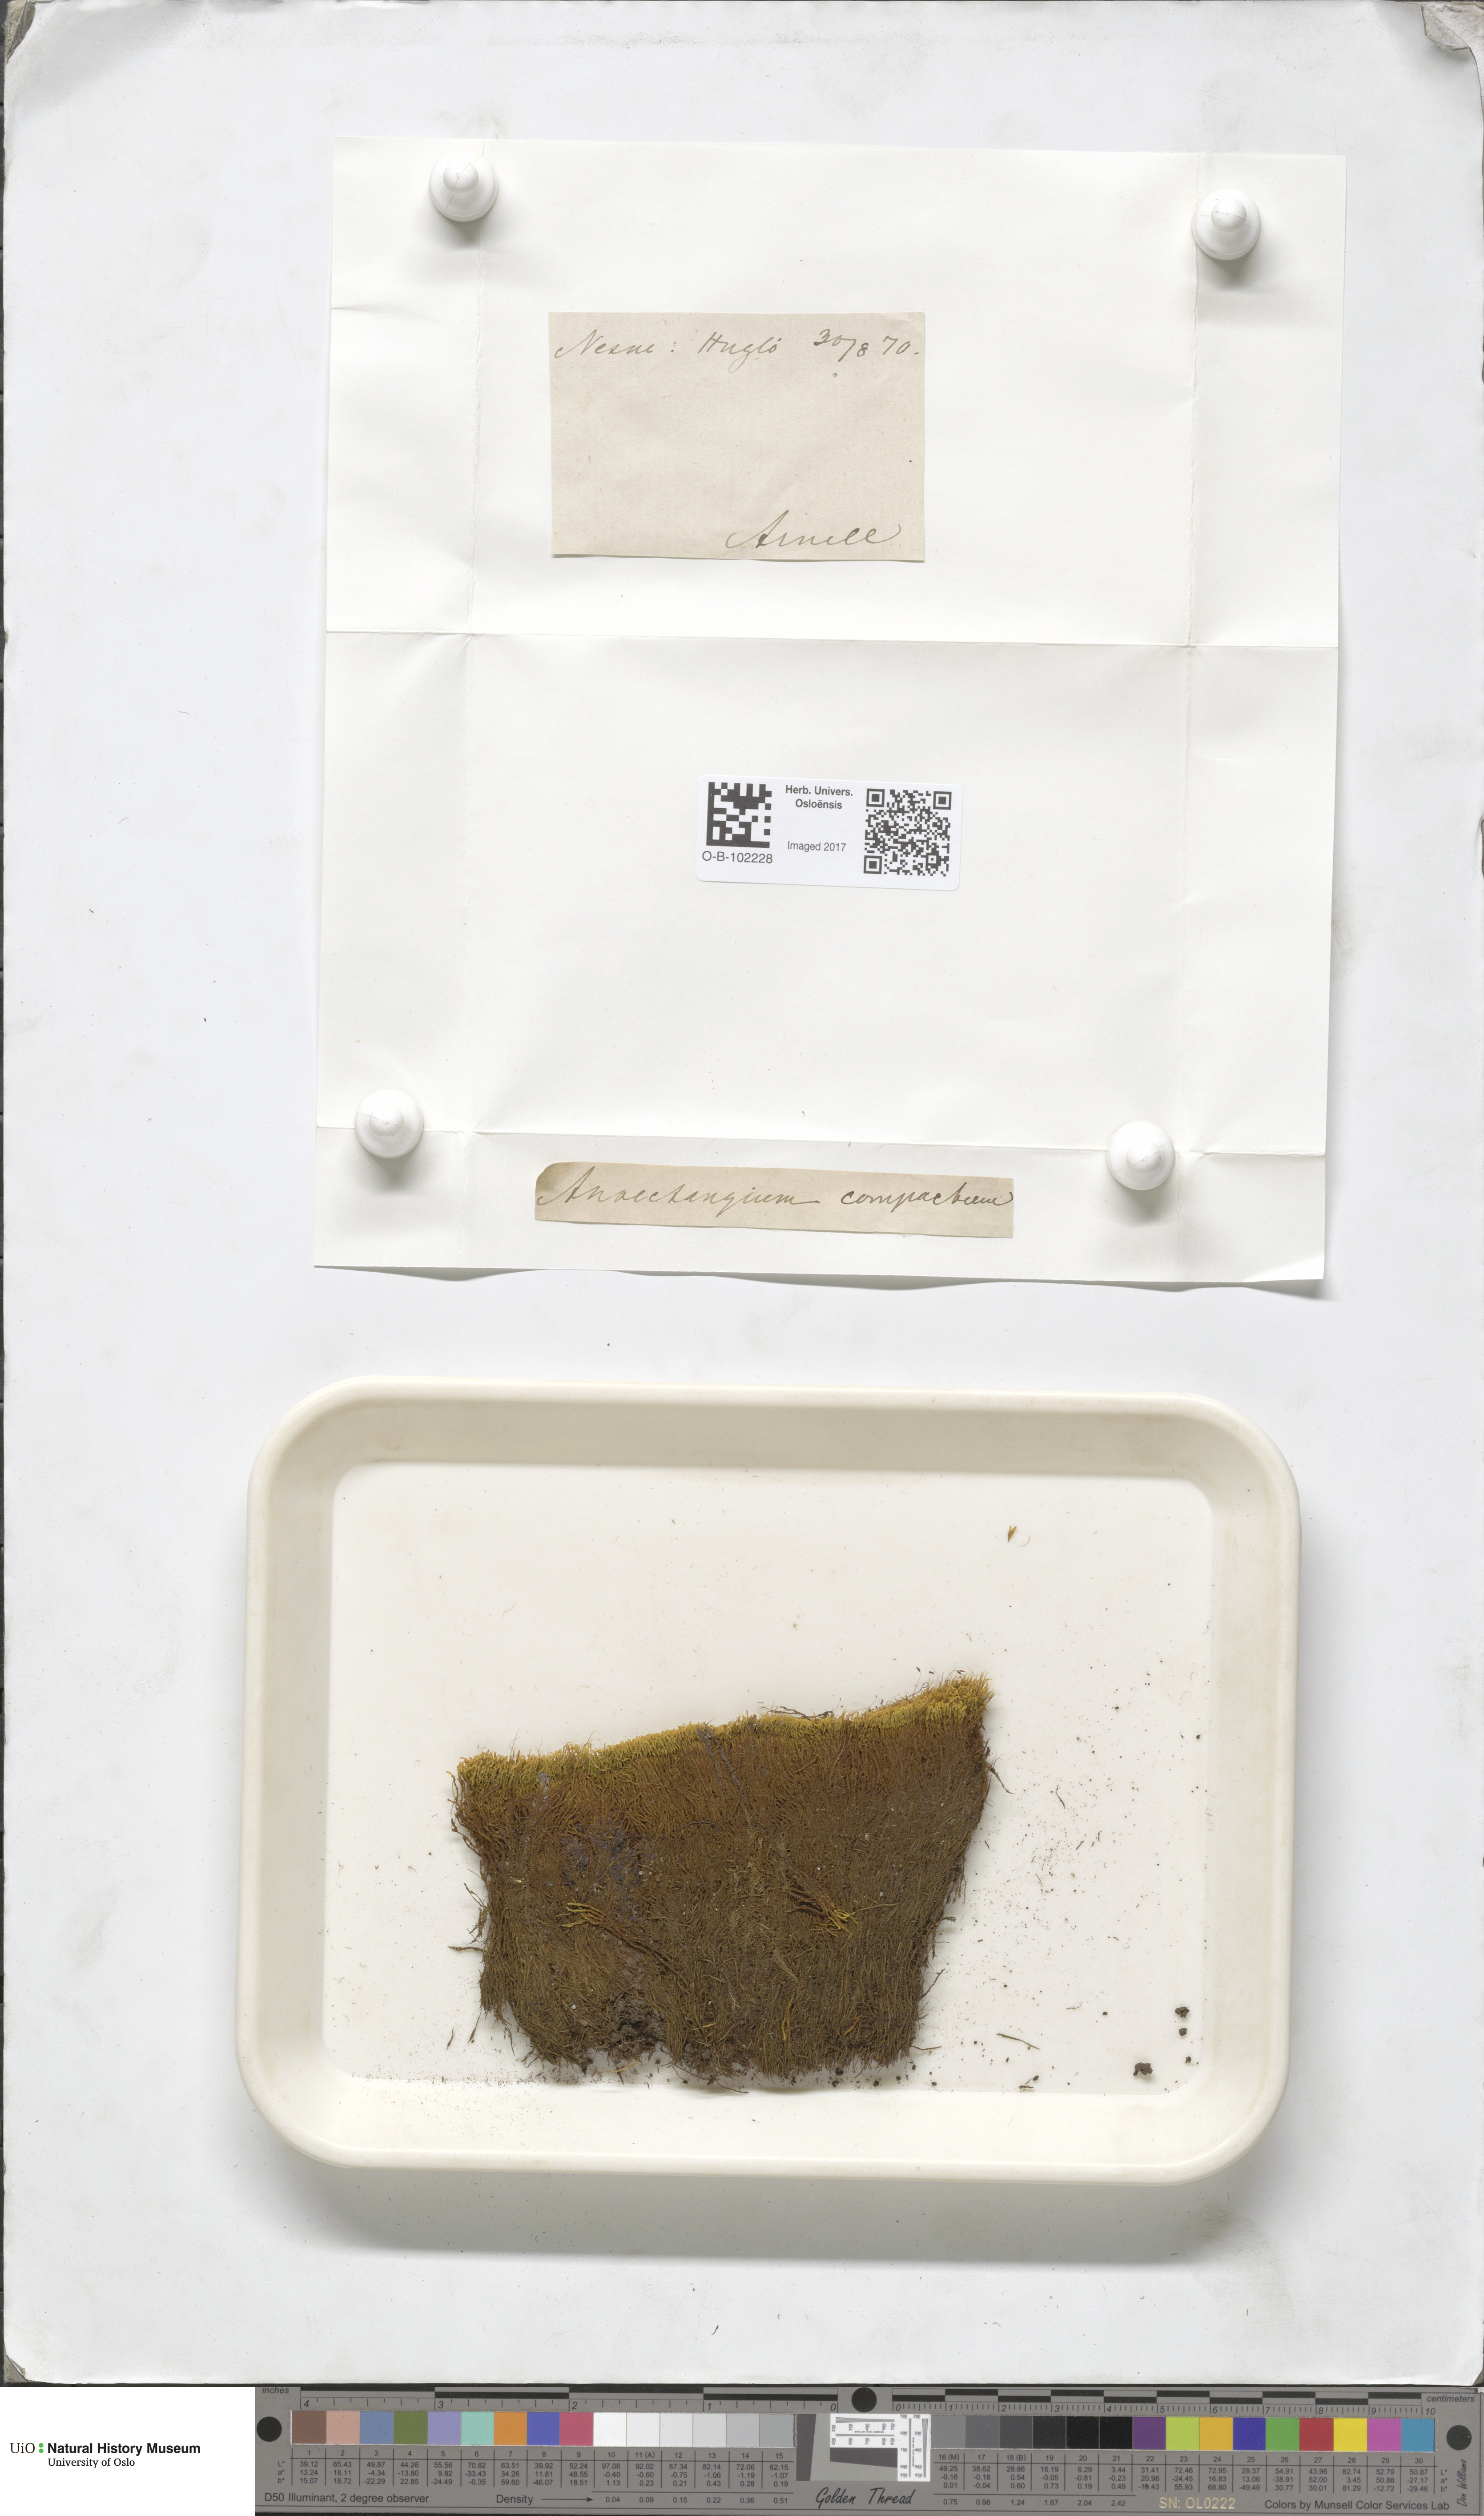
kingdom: Plantae
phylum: Bryophyta
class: Bryopsida
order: Pottiales
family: Pottiaceae
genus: Anoectangium
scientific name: Anoectangium aestivum
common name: Summer-moss
